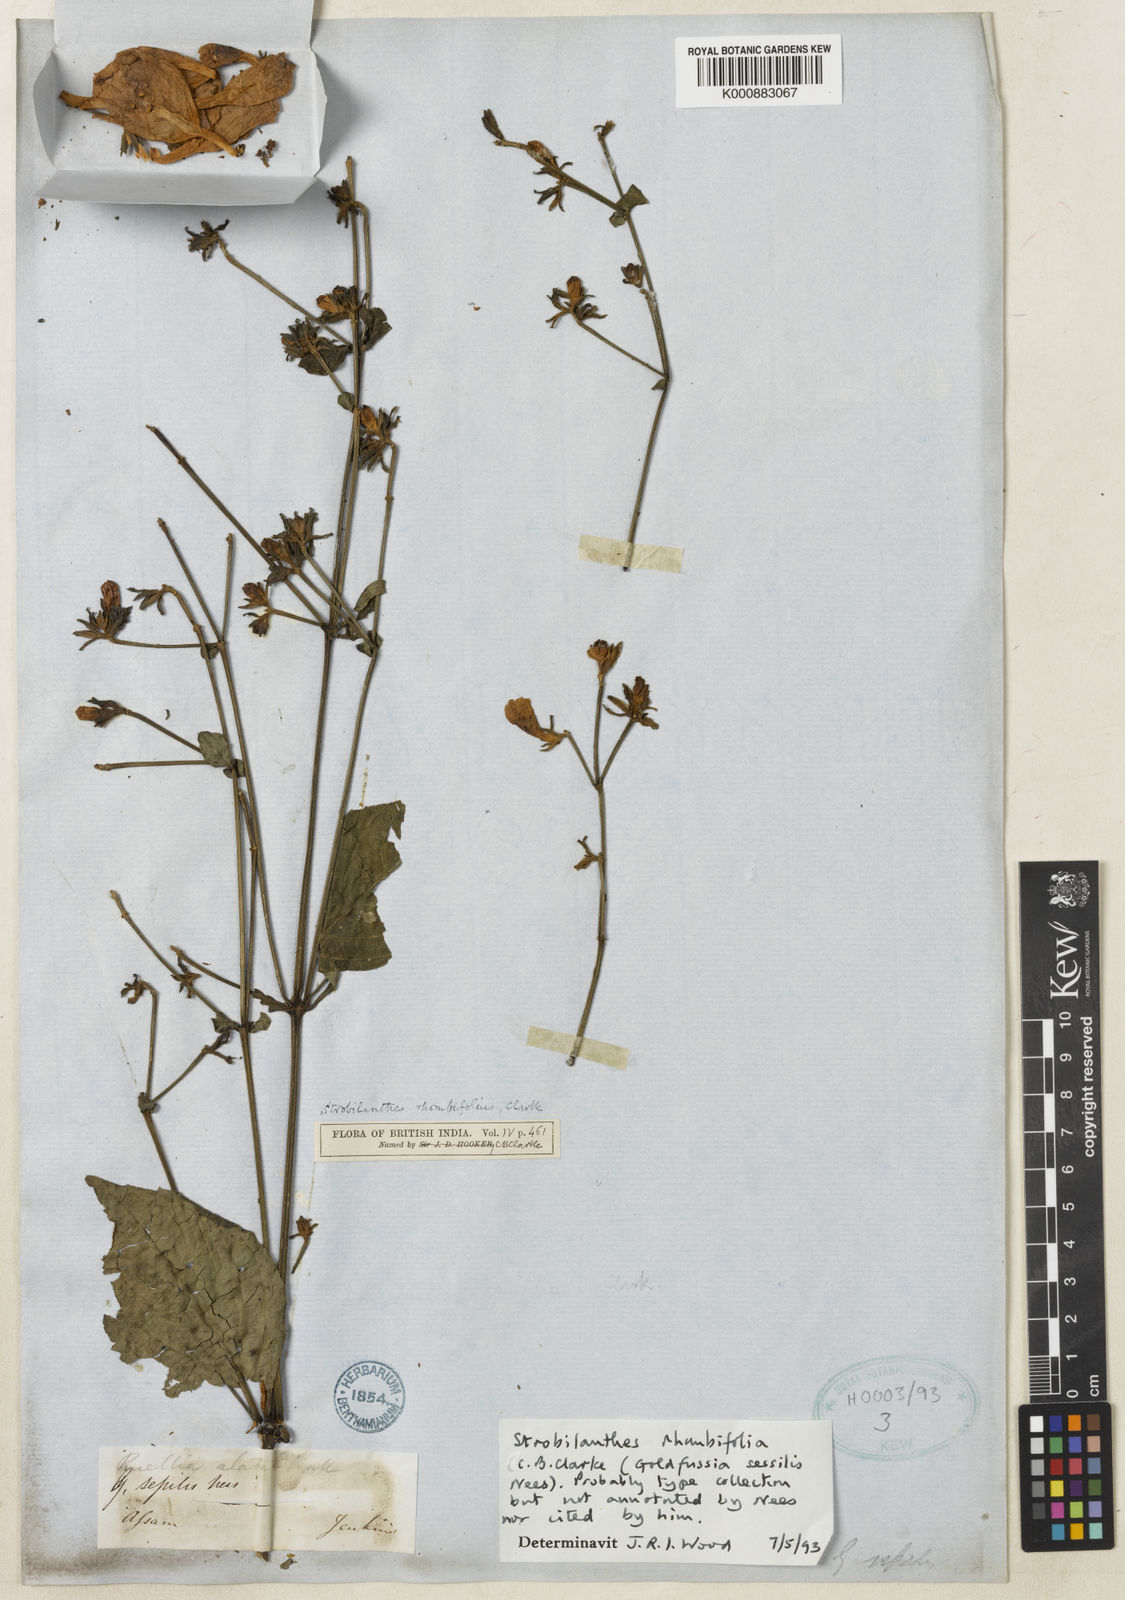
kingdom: Plantae
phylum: Tracheophyta
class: Magnoliopsida
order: Lamiales
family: Acanthaceae
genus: Strobilanthes
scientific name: Strobilanthes rhombifolia
